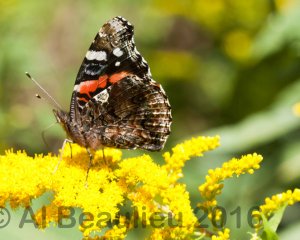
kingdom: Animalia
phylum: Arthropoda
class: Insecta
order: Lepidoptera
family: Nymphalidae
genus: Vanessa
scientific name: Vanessa atalanta
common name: Red Admiral
